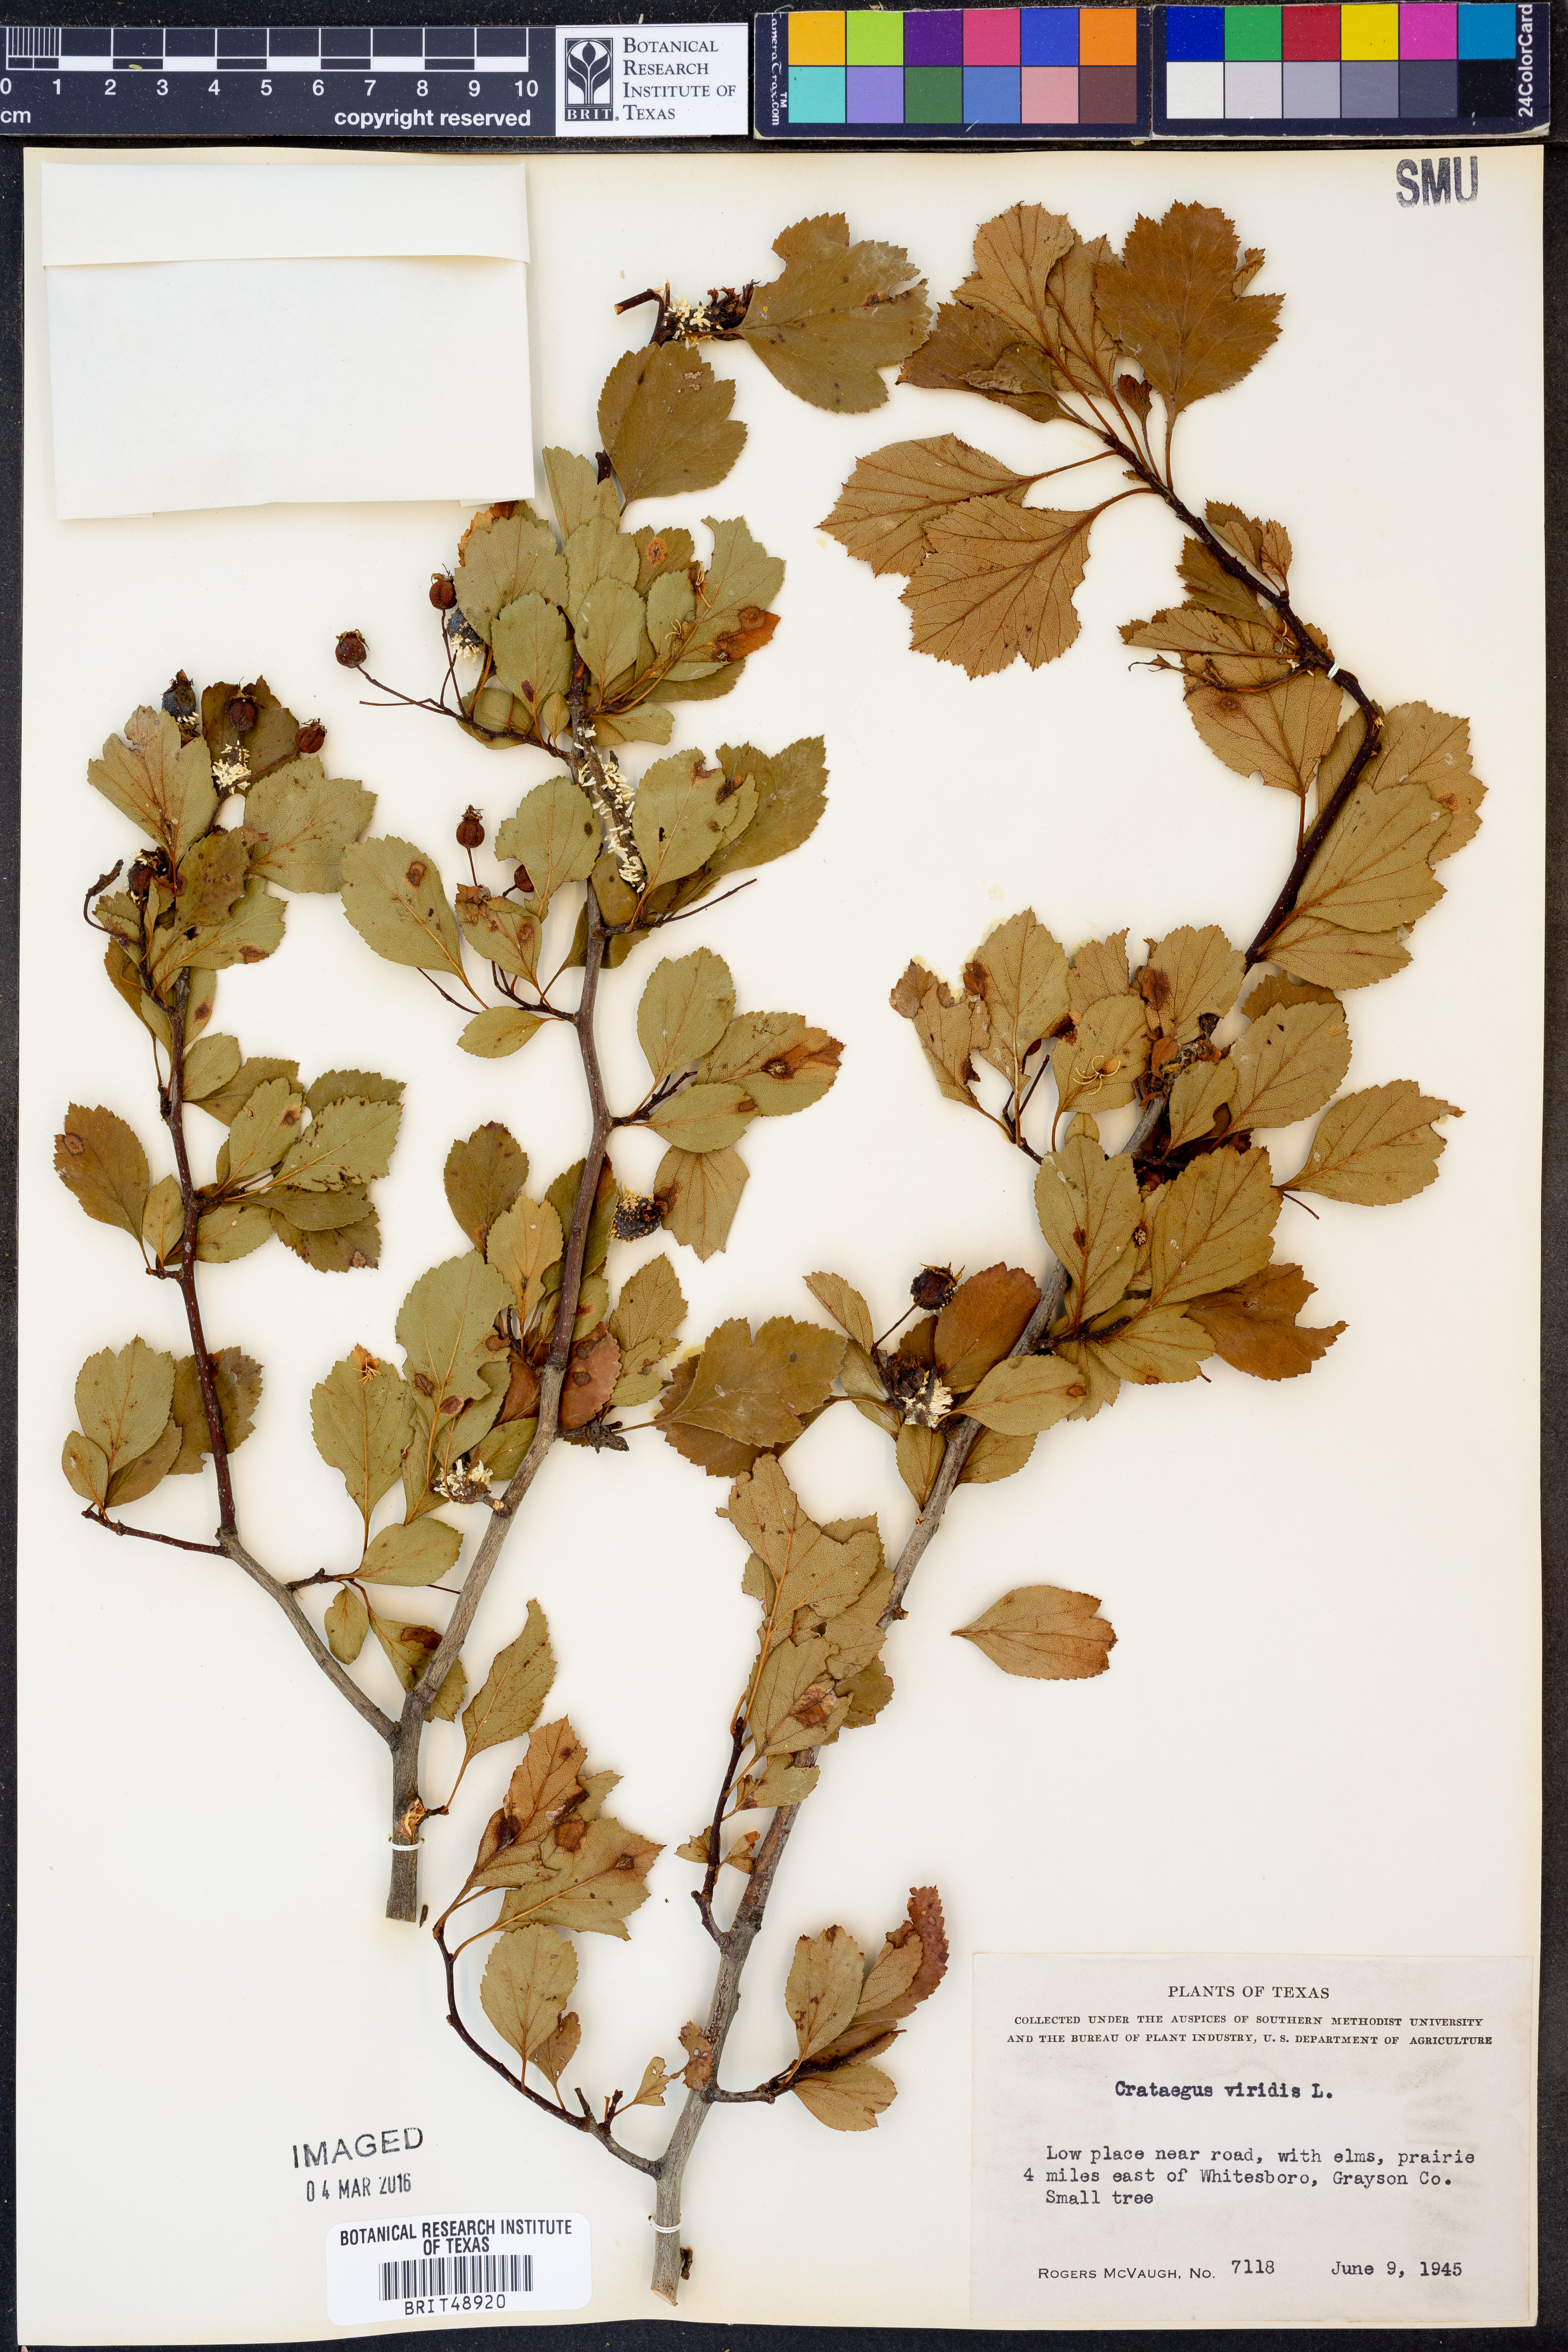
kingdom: Plantae
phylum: Tracheophyta
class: Magnoliopsida
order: Rosales
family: Rosaceae
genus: Crataegus
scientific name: Crataegus viridis
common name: Southernthorn
